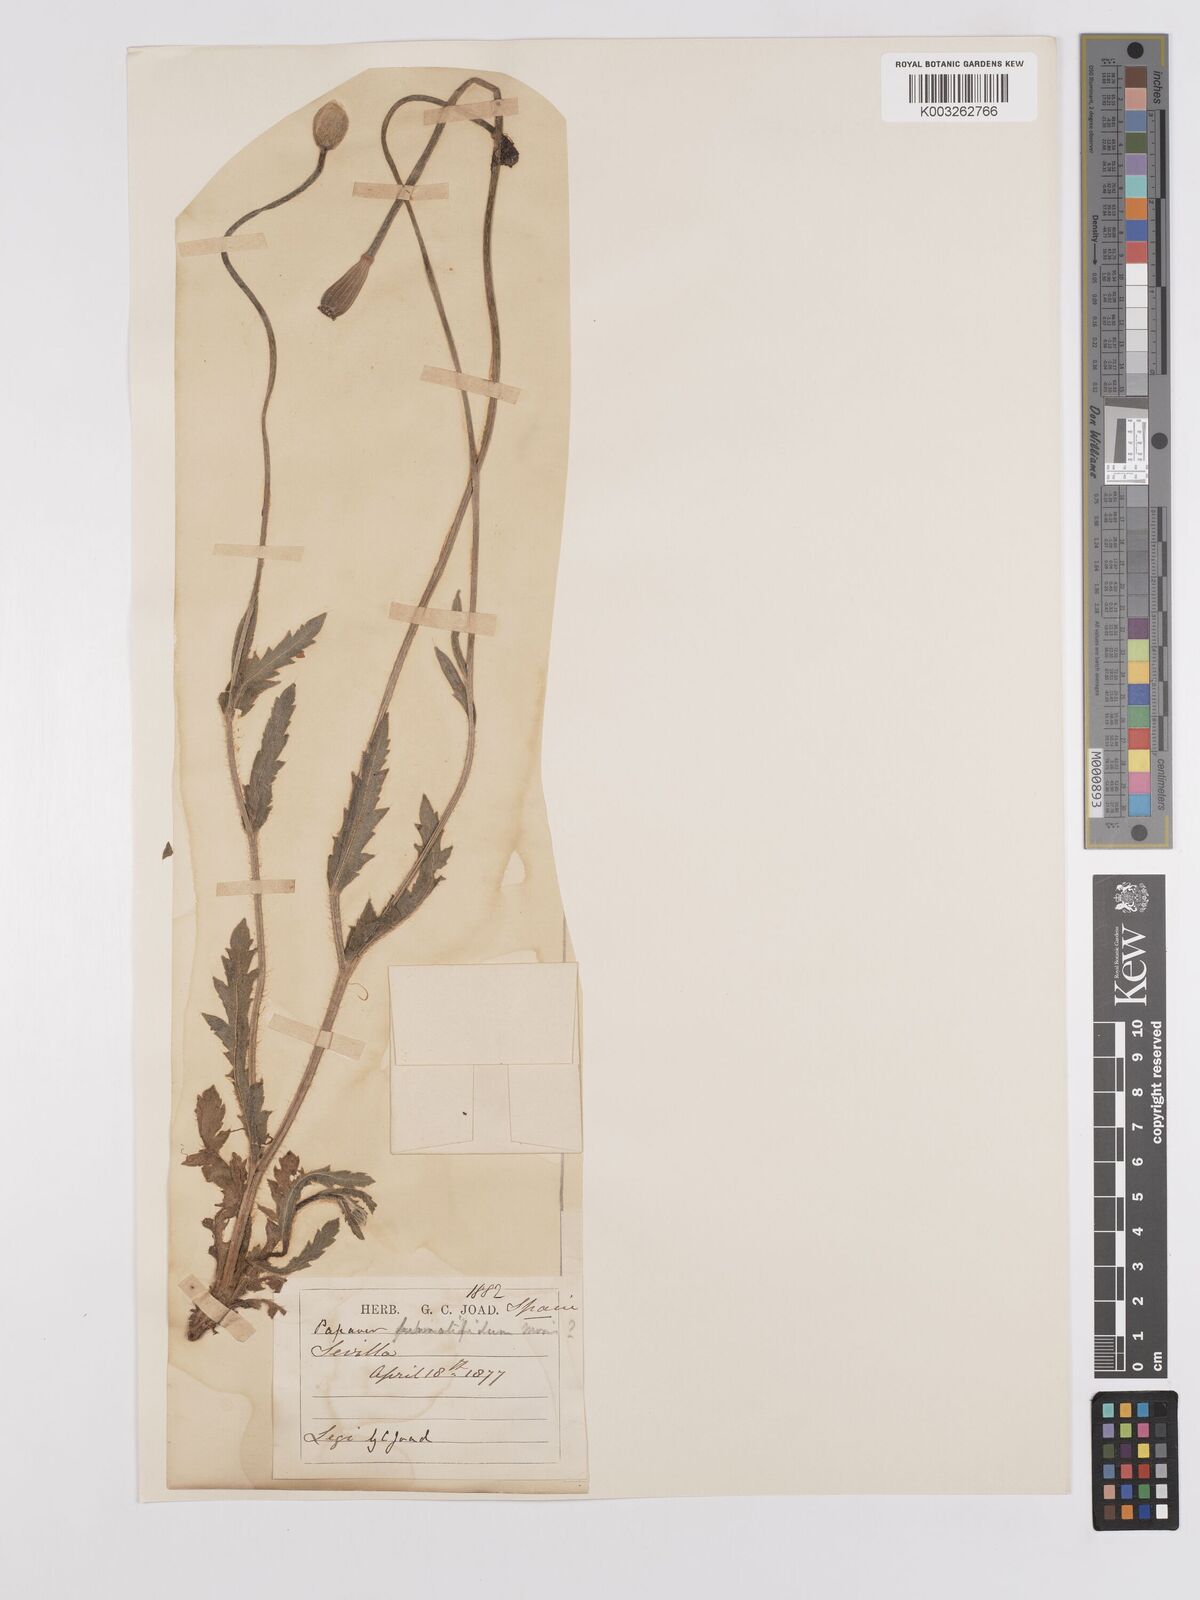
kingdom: Plantae
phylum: Tracheophyta
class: Magnoliopsida
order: Ranunculales
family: Papaveraceae
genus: Papaver
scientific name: Papaver pinnatifidum
